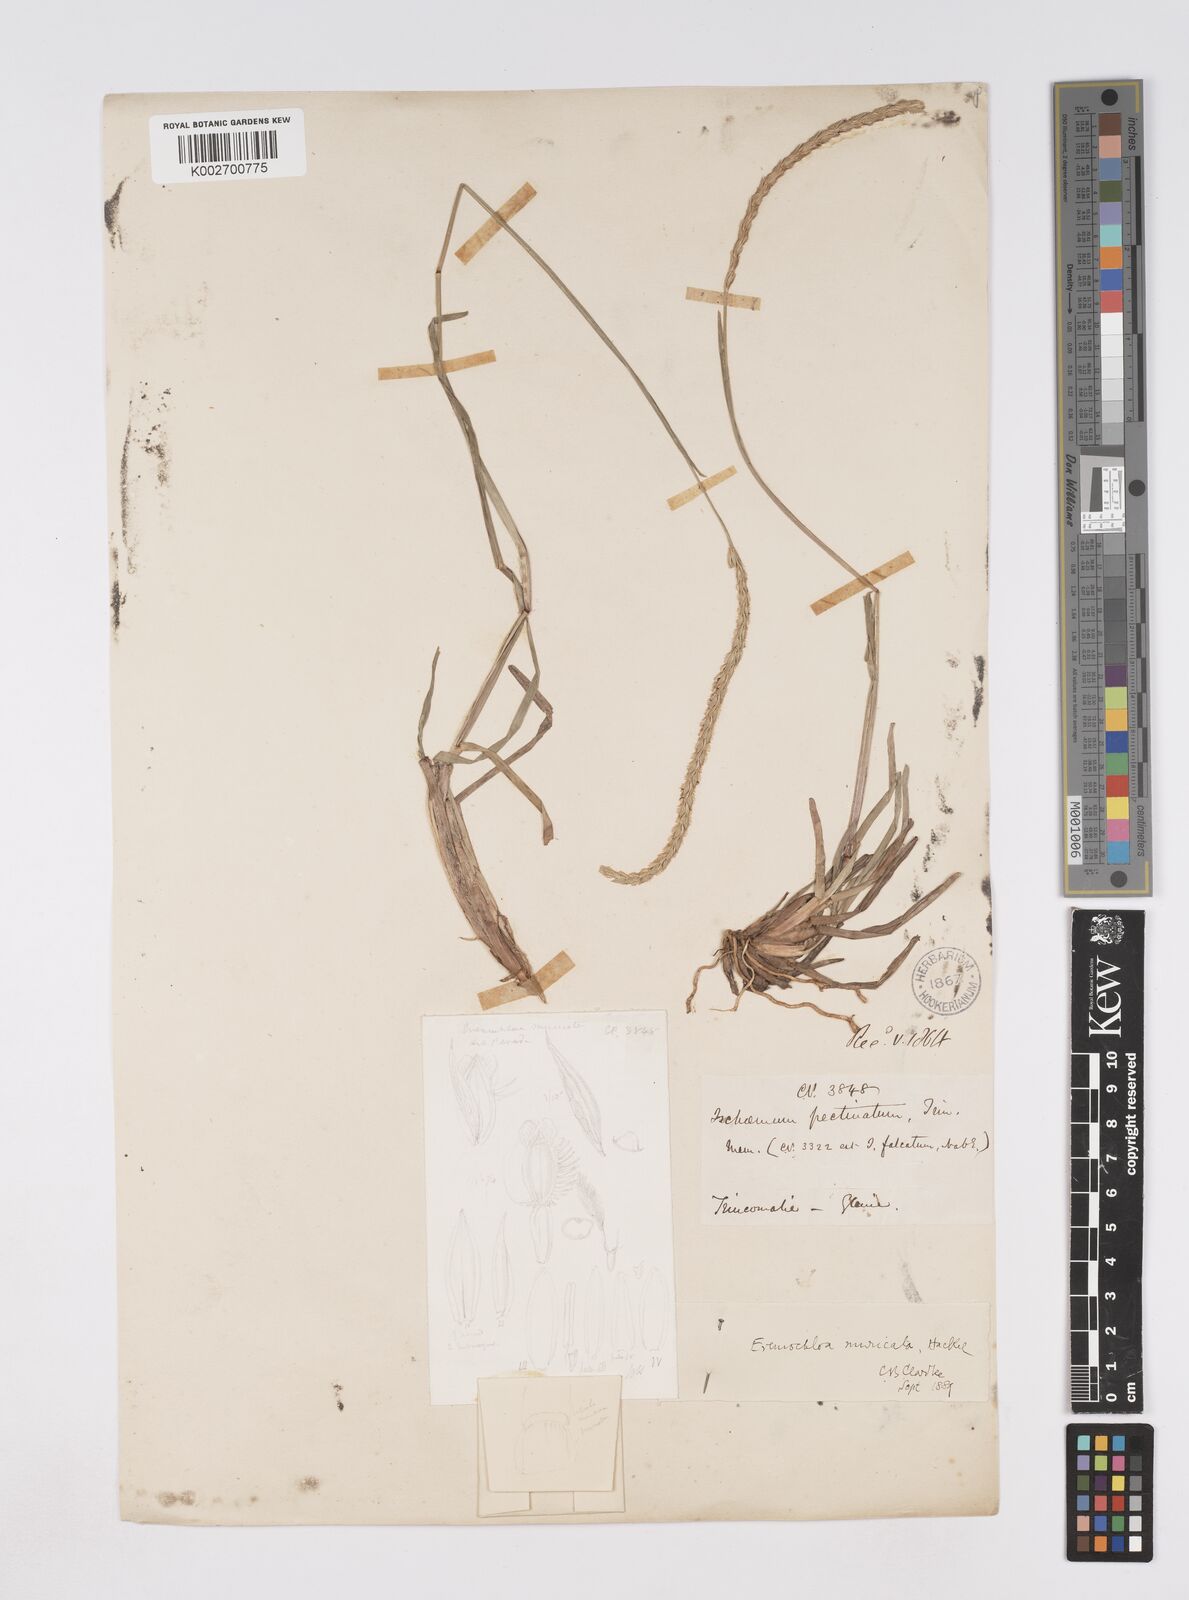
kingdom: Plantae
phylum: Tracheophyta
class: Liliopsida
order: Poales
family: Poaceae
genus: Eremochloa
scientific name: Eremochloa muricata
